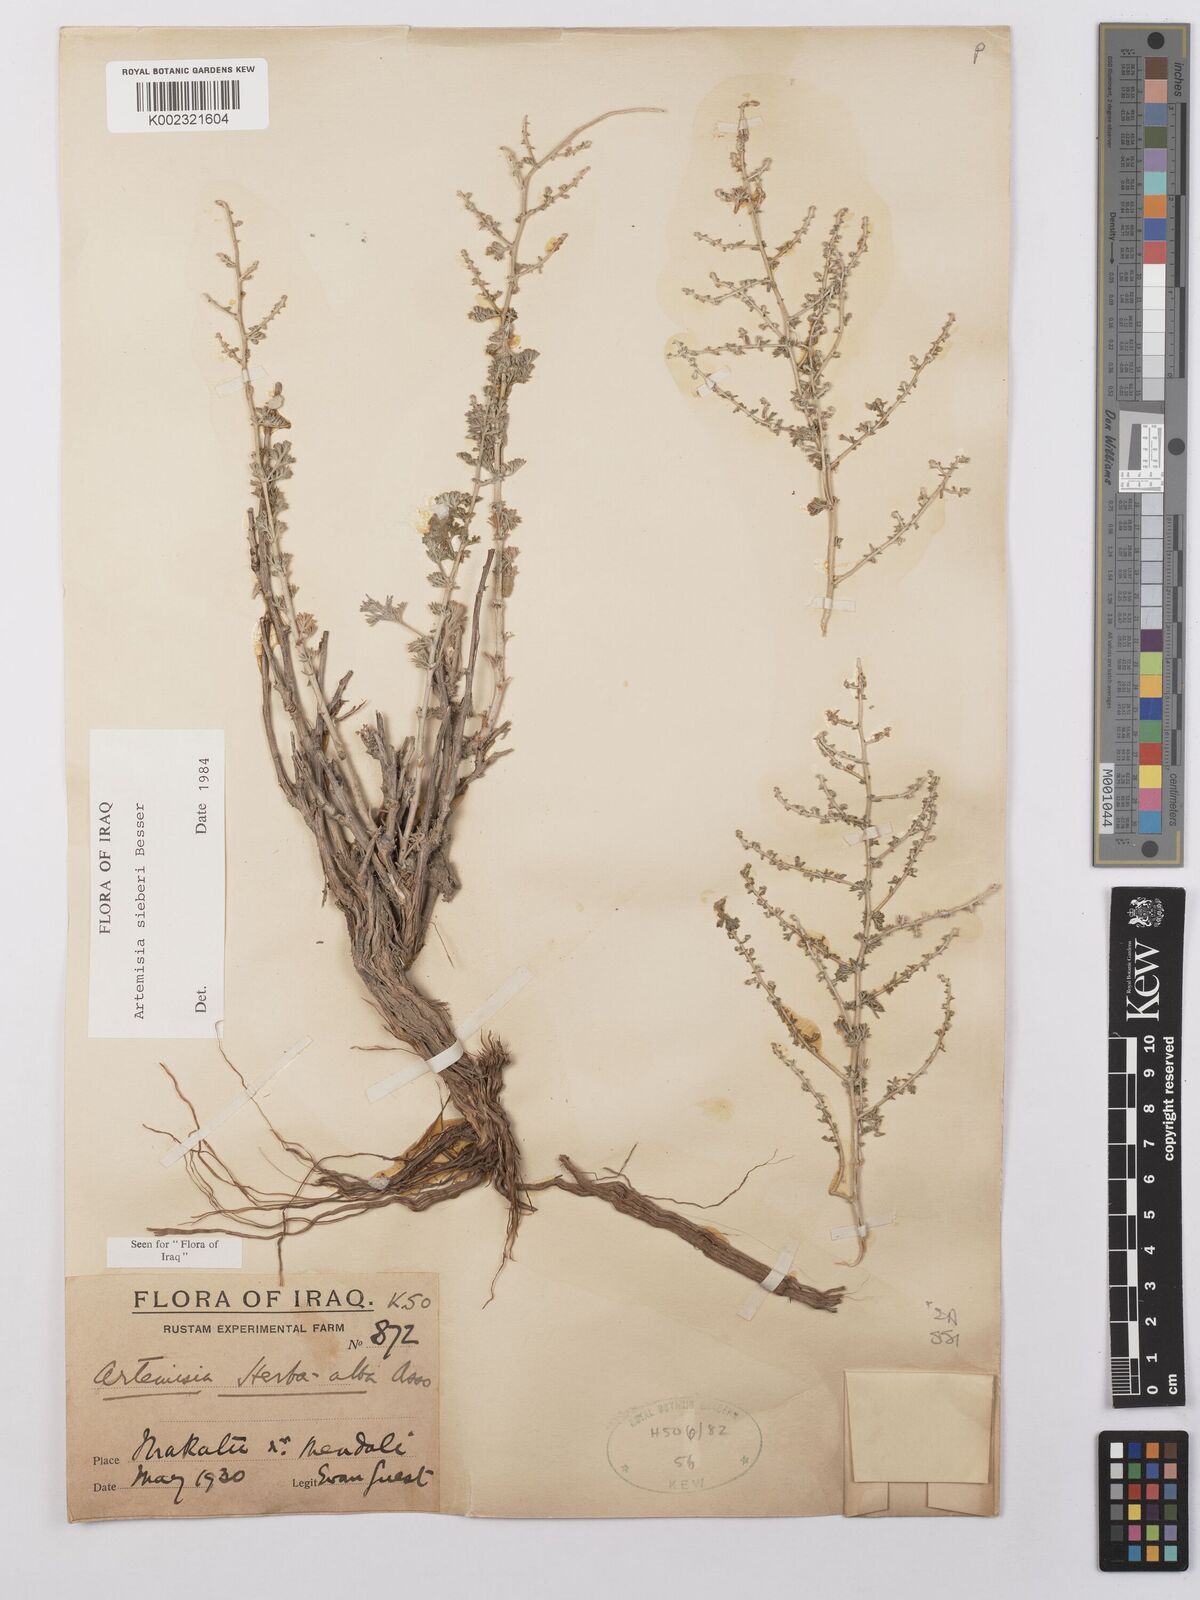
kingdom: Plantae
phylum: Tracheophyta
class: Magnoliopsida
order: Asterales
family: Asteraceae
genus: Artemisia
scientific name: Artemisia sieberi
